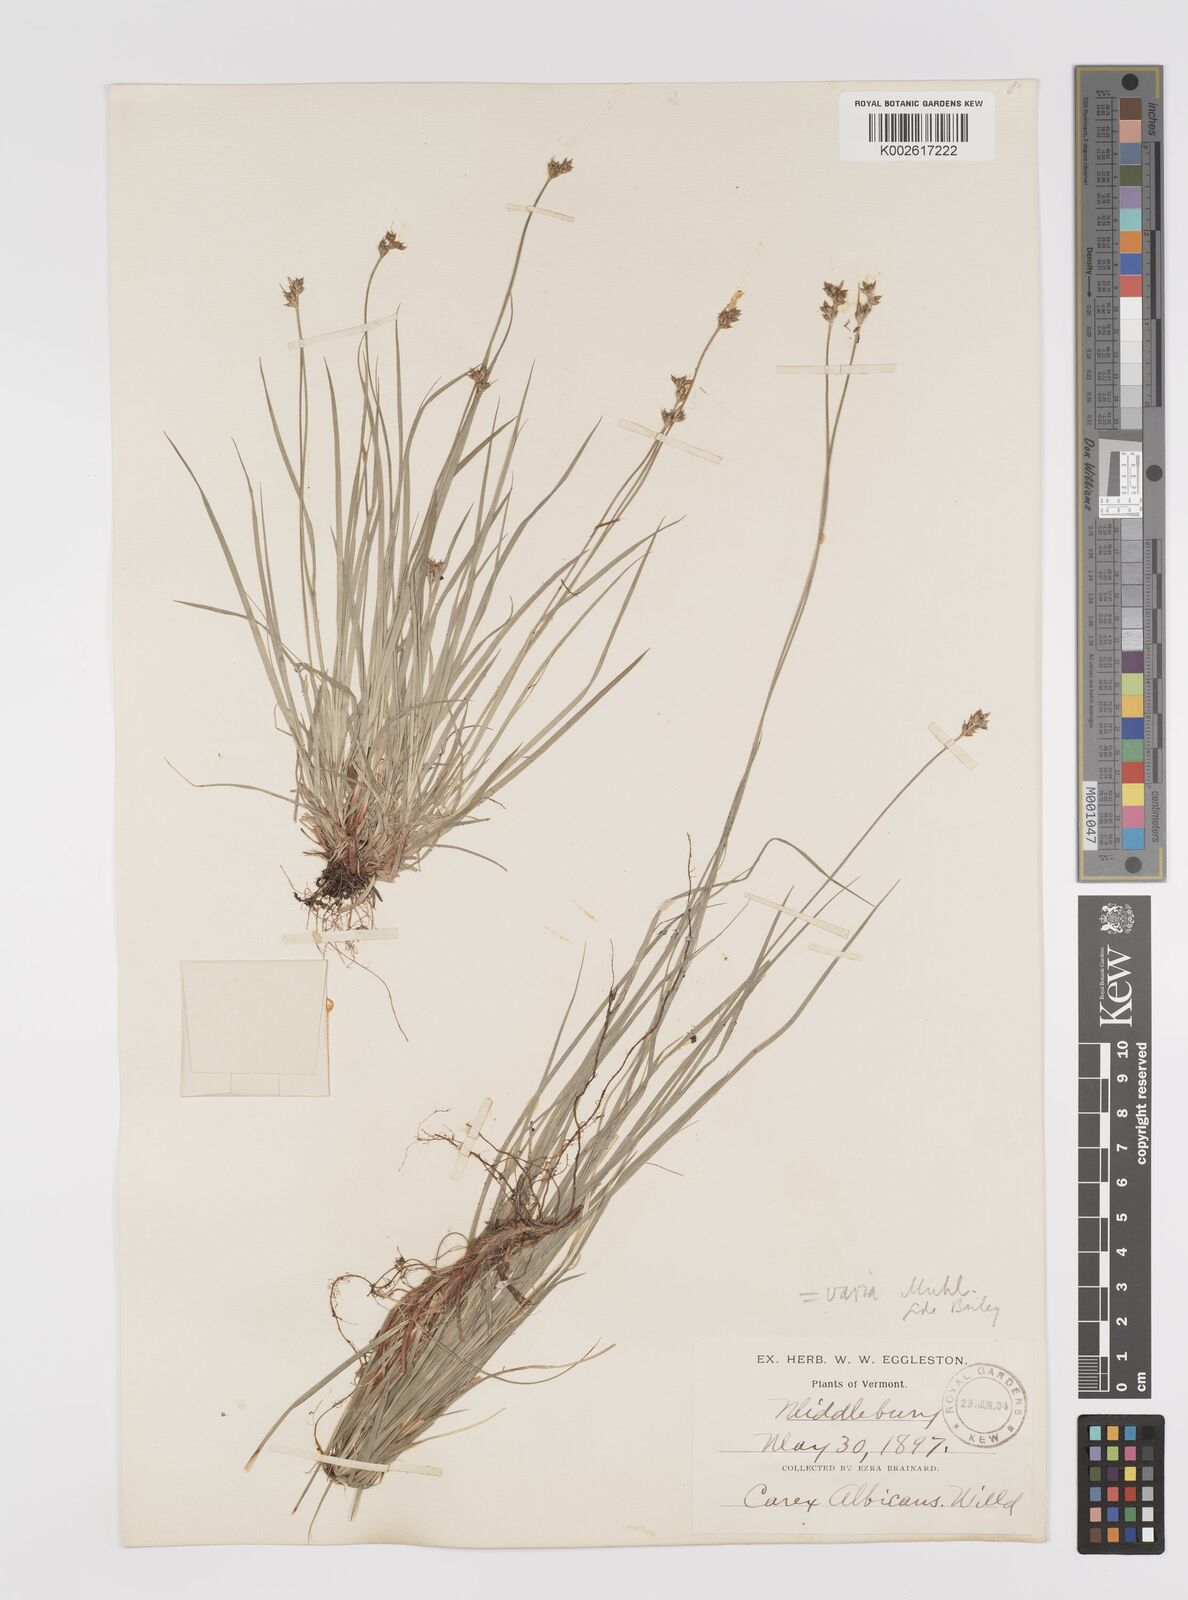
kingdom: Plantae
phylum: Tracheophyta
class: Liliopsida
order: Poales
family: Cyperaceae
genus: Carex
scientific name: Carex albicans
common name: Bellow-beaked sedge
